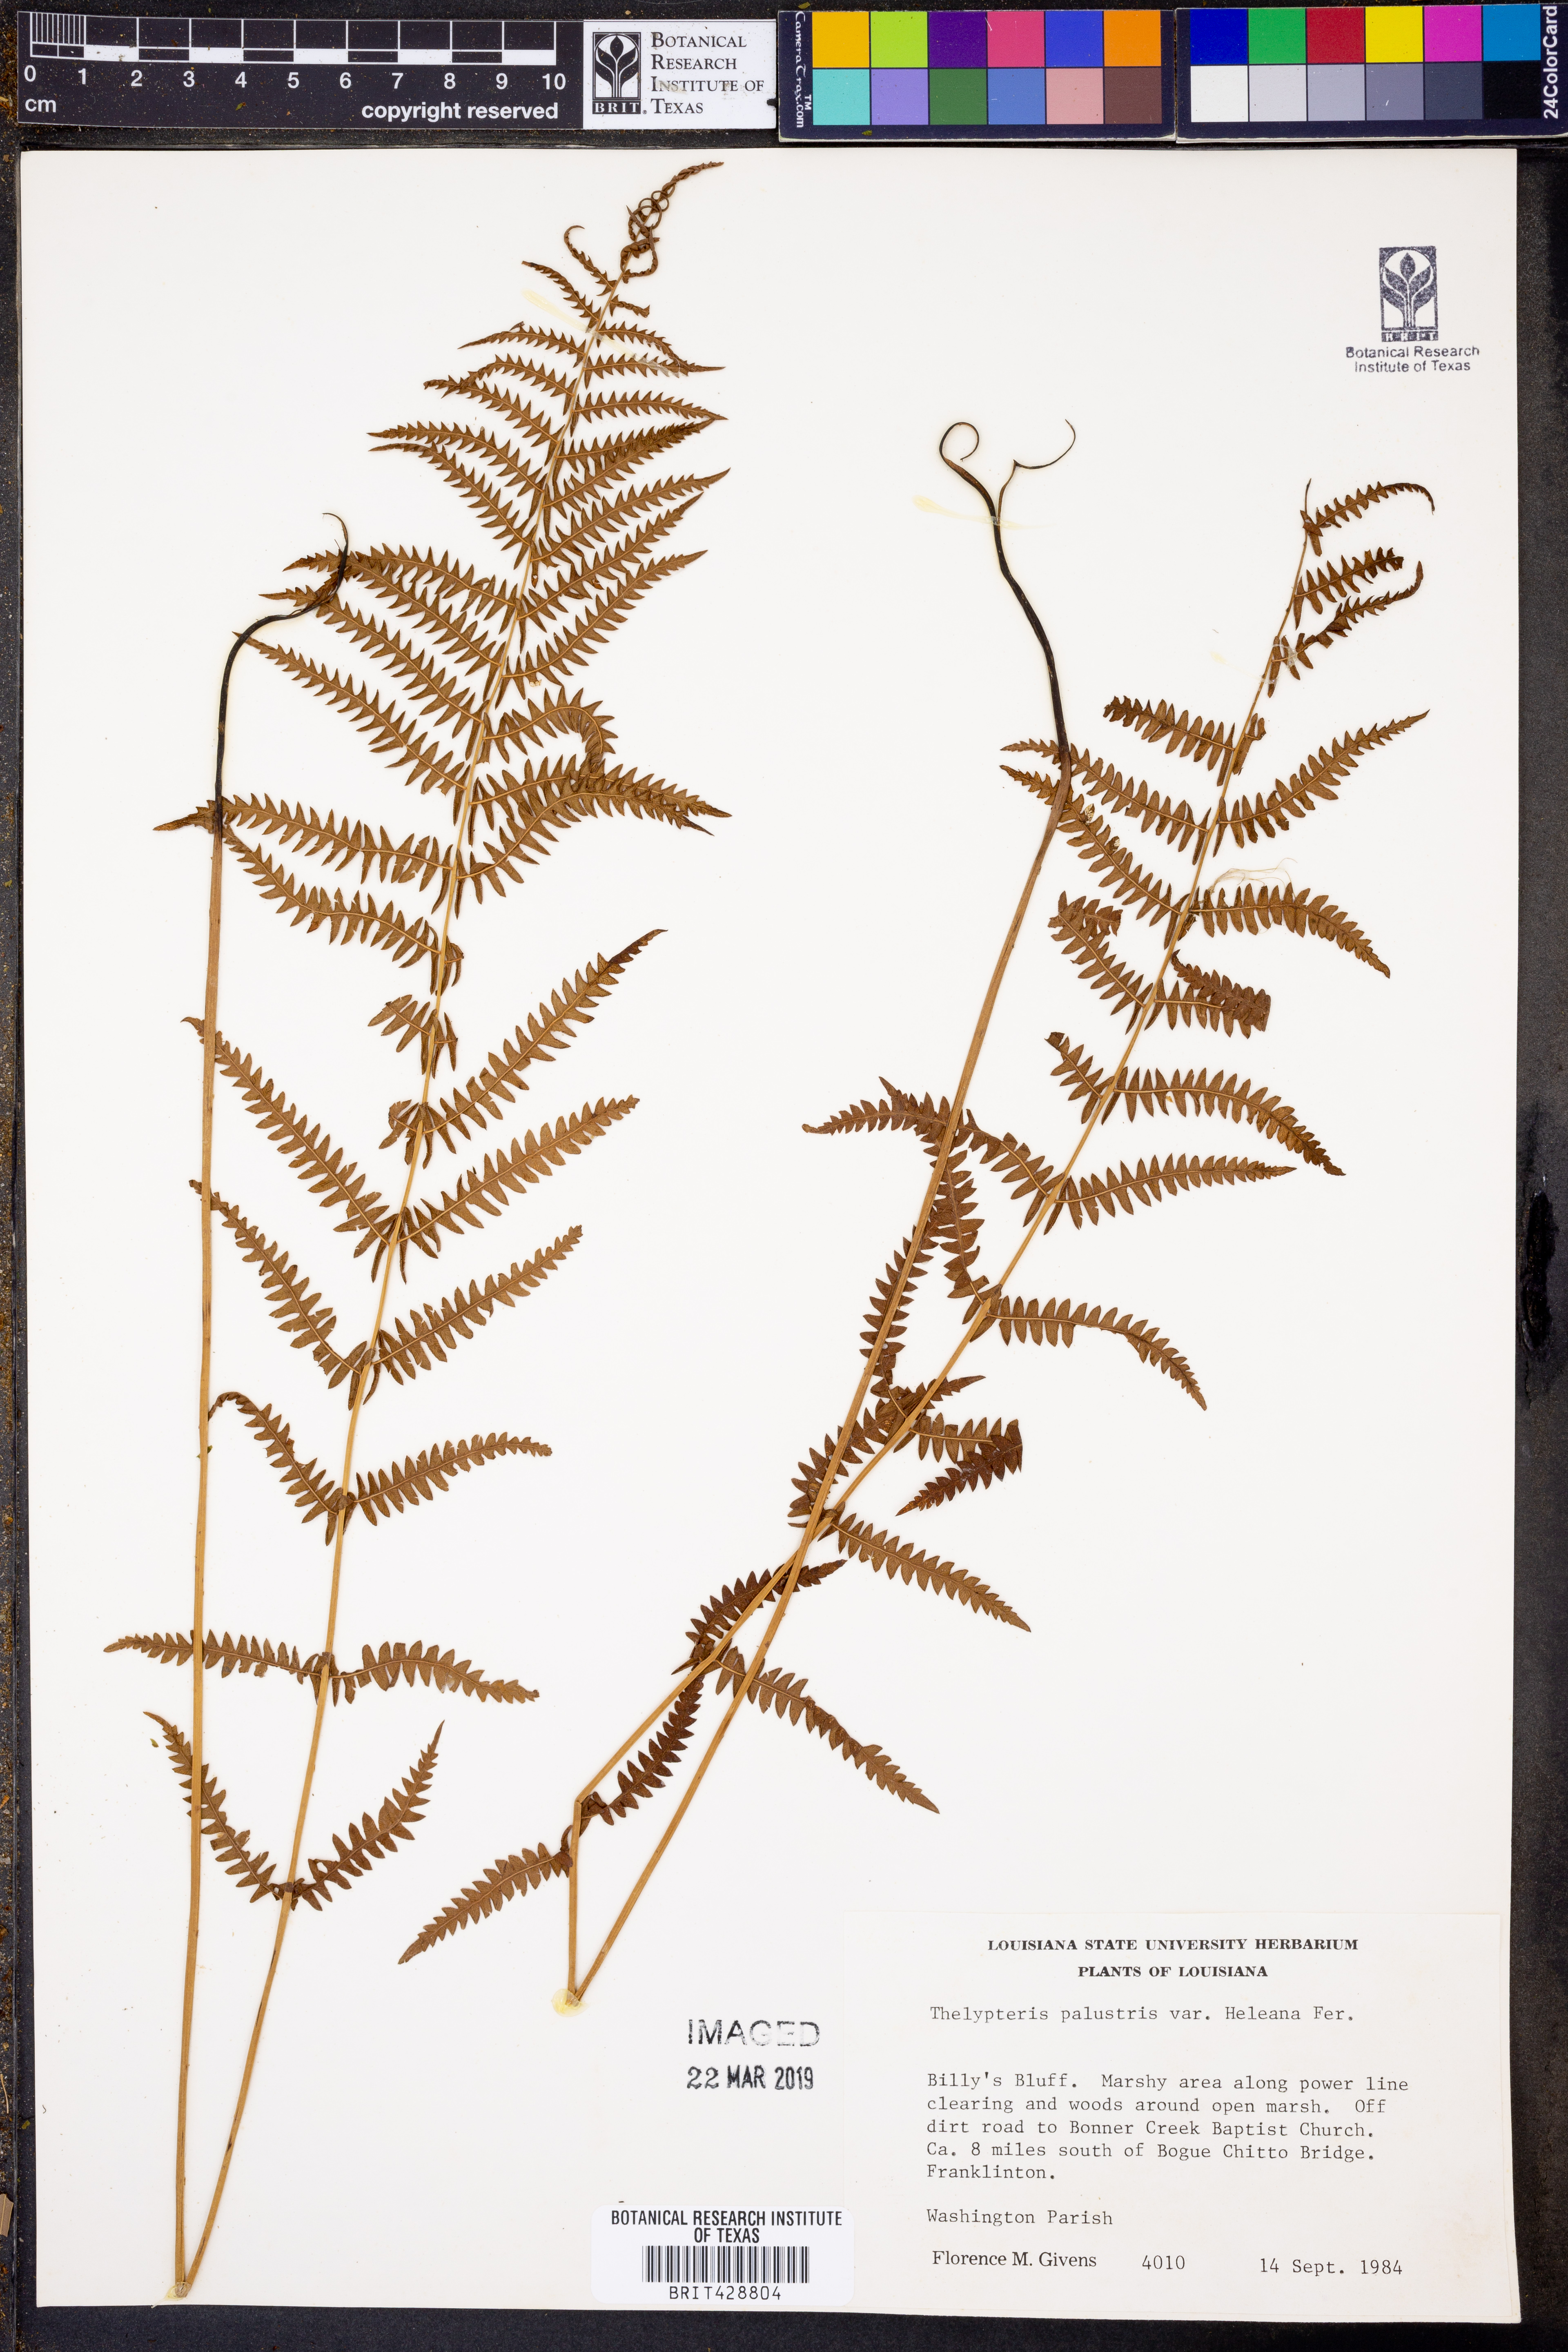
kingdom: Plantae
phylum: Tracheophyta
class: Polypodiopsida
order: Polypodiales
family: Thelypteridaceae
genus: Thelypteris
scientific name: Thelypteris palustris
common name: Marsh fern
